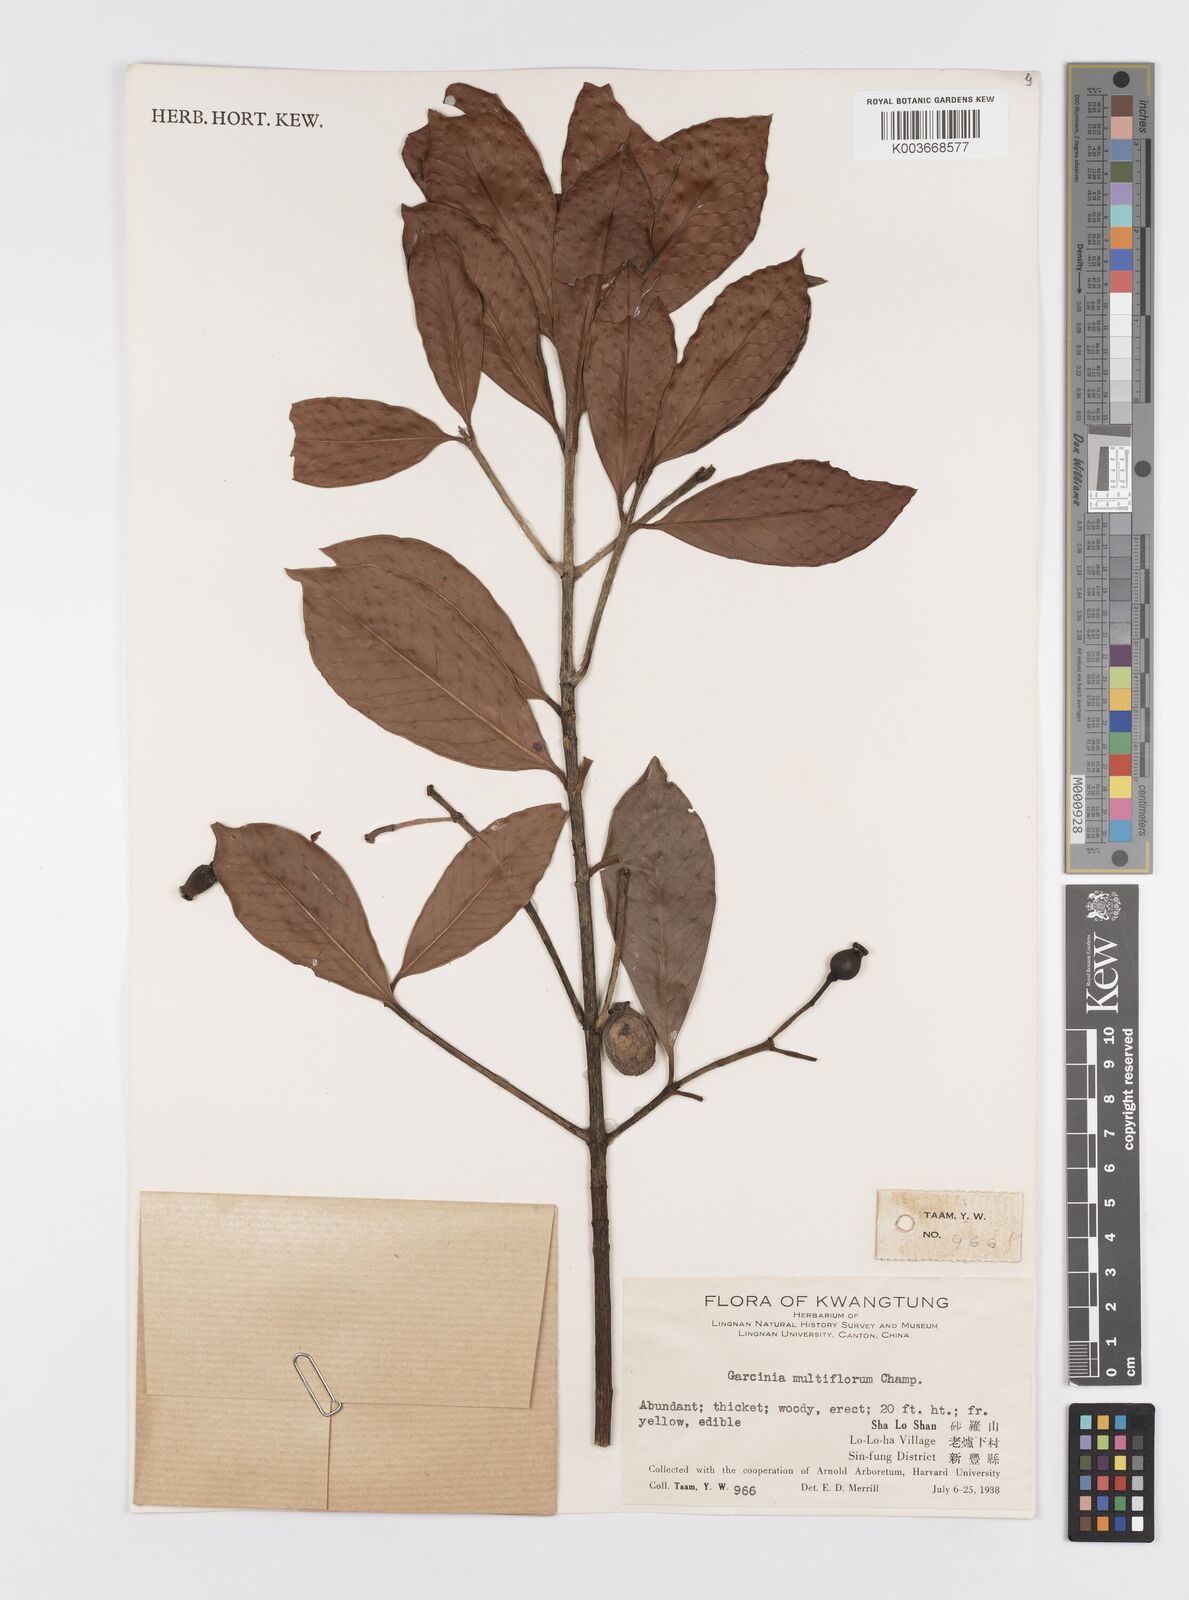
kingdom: Plantae
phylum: Tracheophyta
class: Magnoliopsida
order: Malpighiales
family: Clusiaceae
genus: Garcinia
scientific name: Garcinia multiflora
